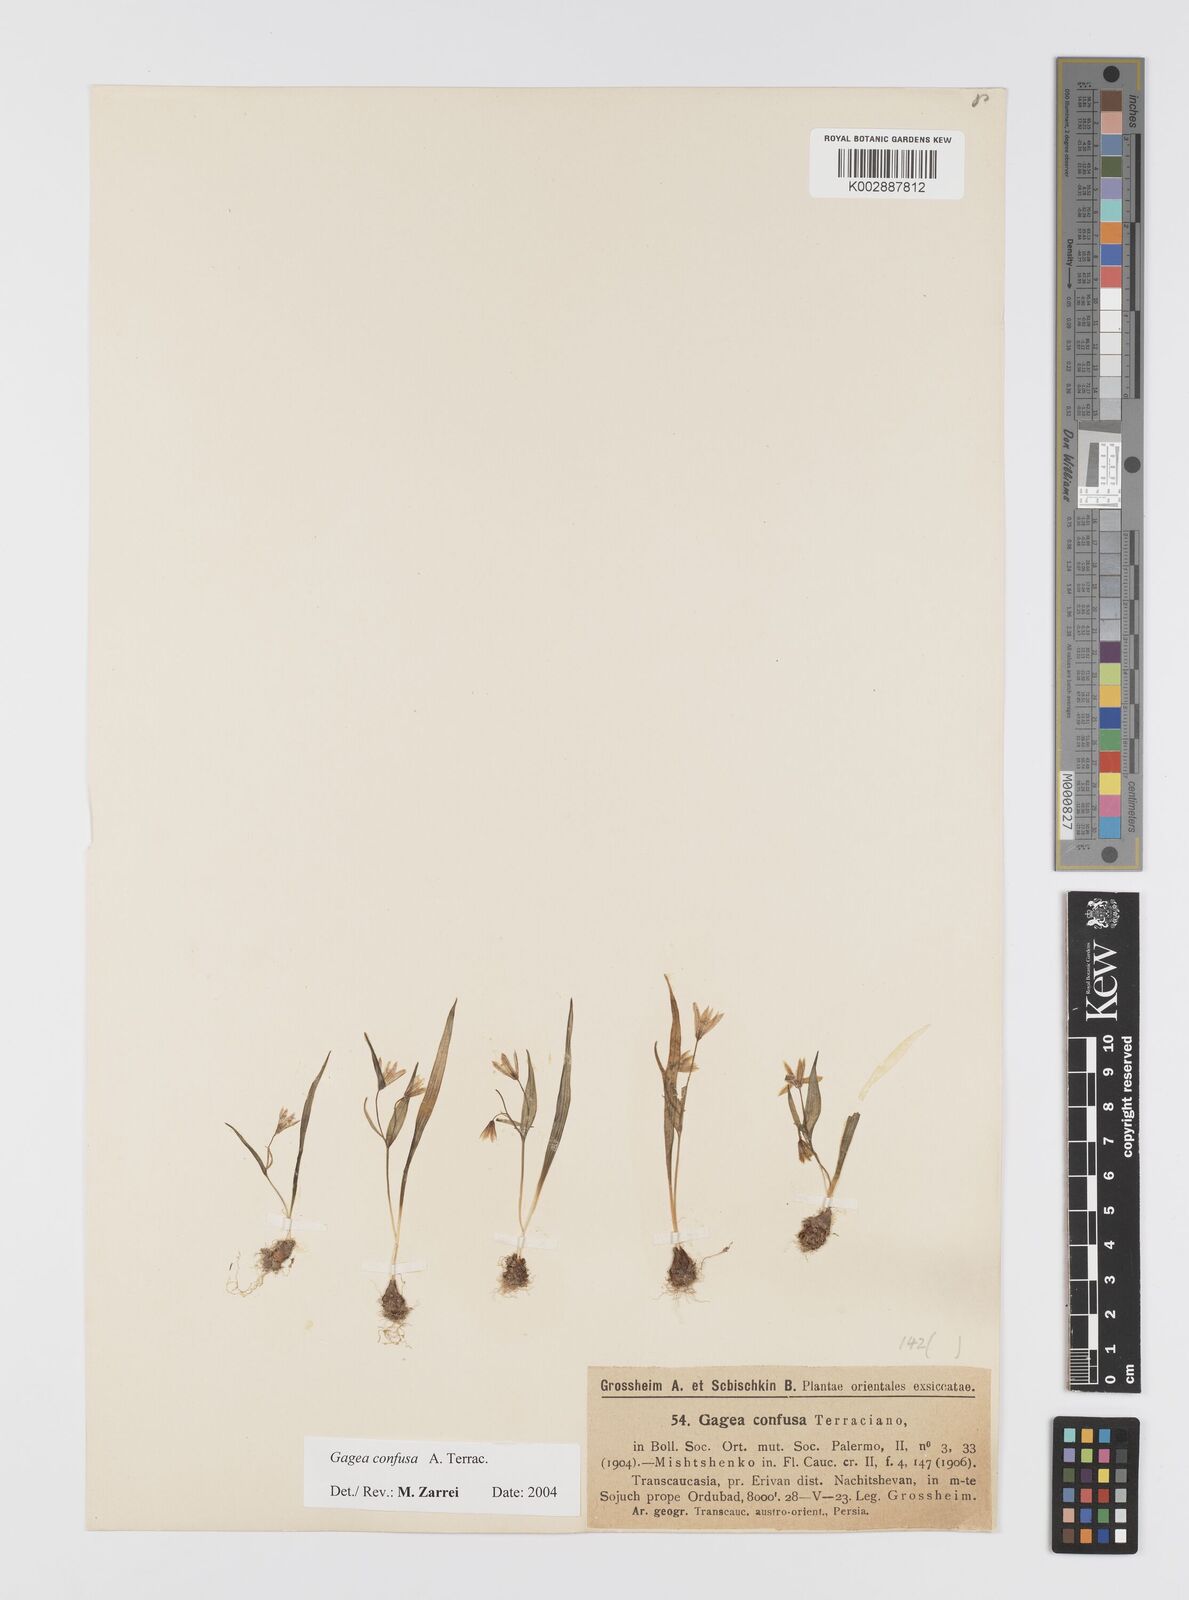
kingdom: Plantae
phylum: Tracheophyta
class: Liliopsida
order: Liliales
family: Liliaceae
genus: Gagea
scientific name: Gagea confusa
